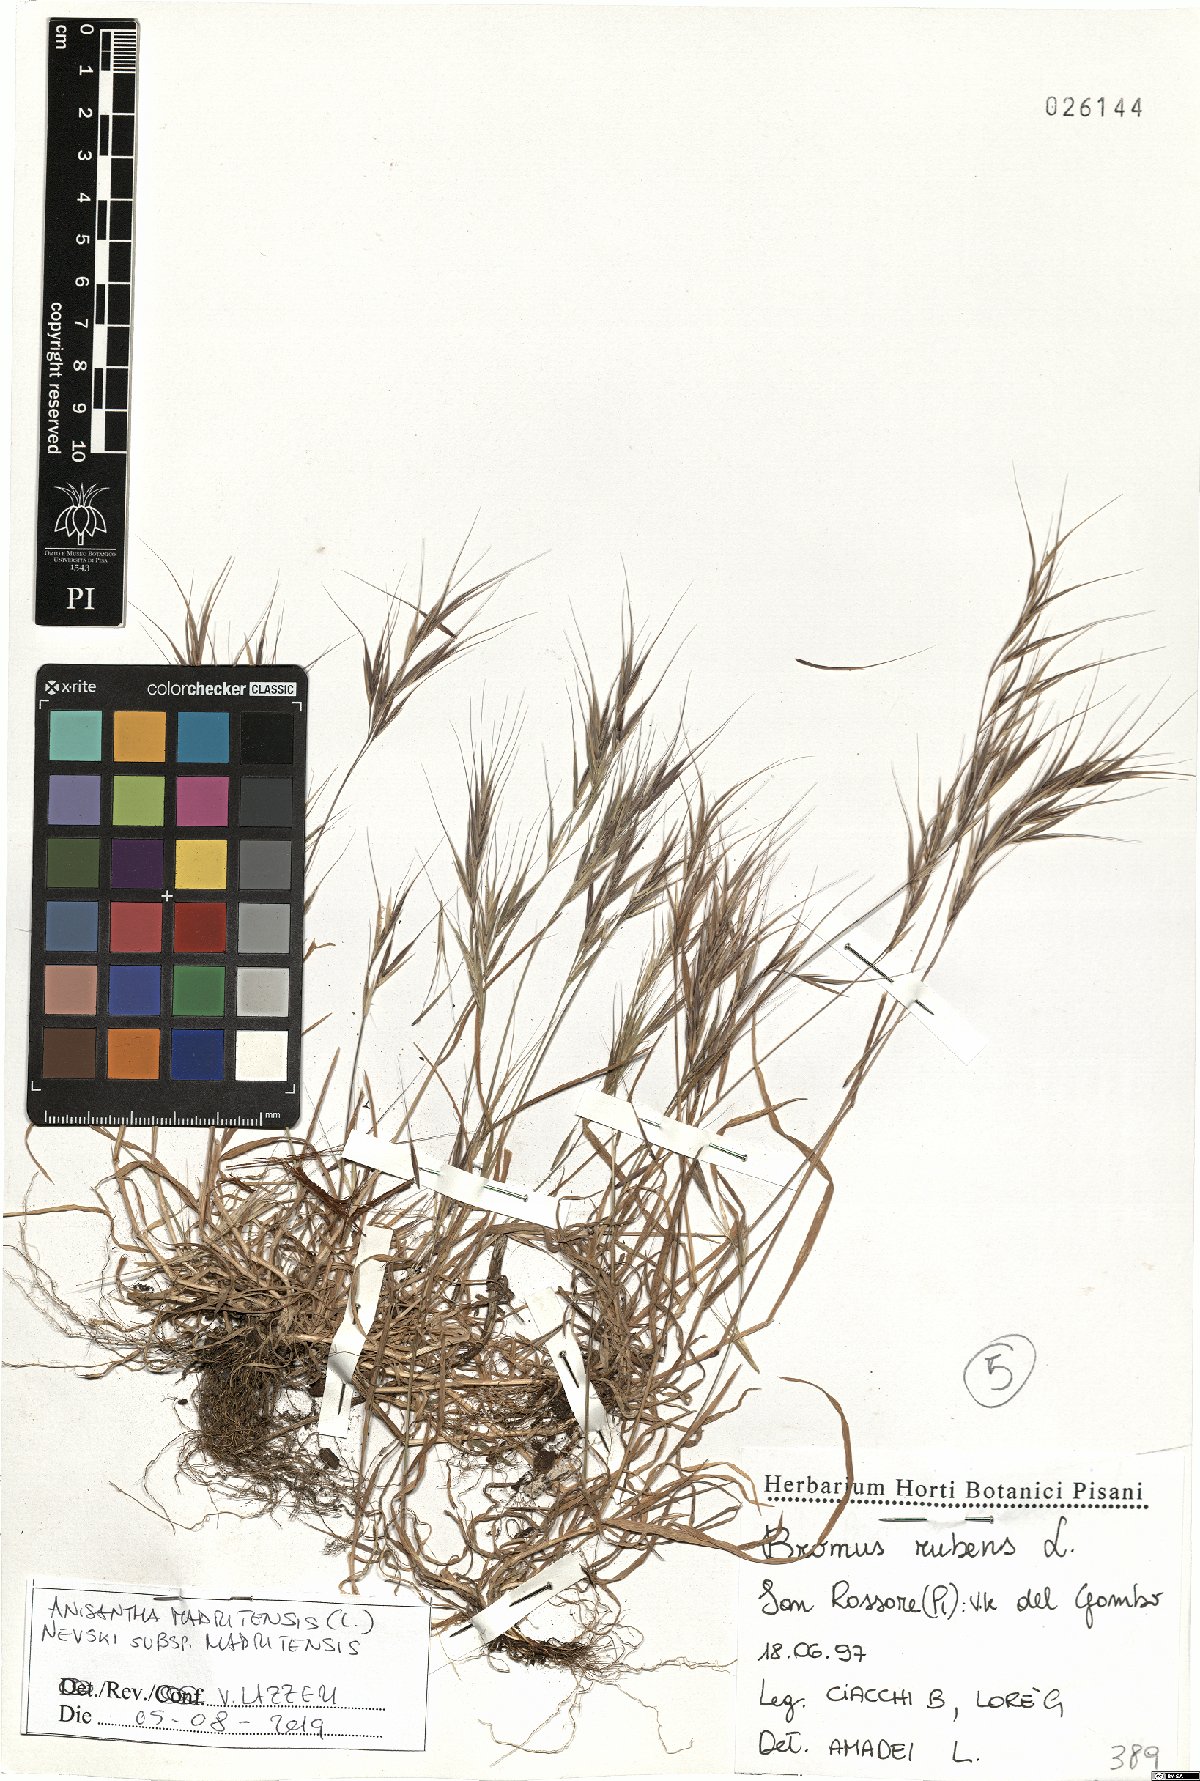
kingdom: Plantae
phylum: Tracheophyta
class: Liliopsida
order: Poales
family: Poaceae
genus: Bromus
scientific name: Bromus madritensis
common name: Compact brome
